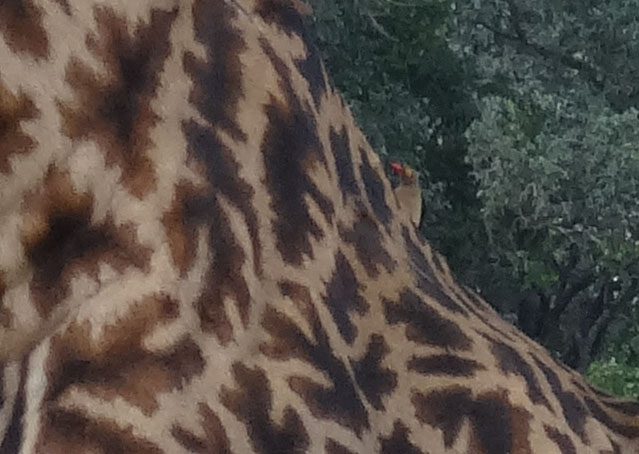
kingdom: Animalia
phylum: Chordata
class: Aves
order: Passeriformes
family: Buphagidae
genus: Buphagus
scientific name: Buphagus erythrorhynchus
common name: Red-billed oxpecker
